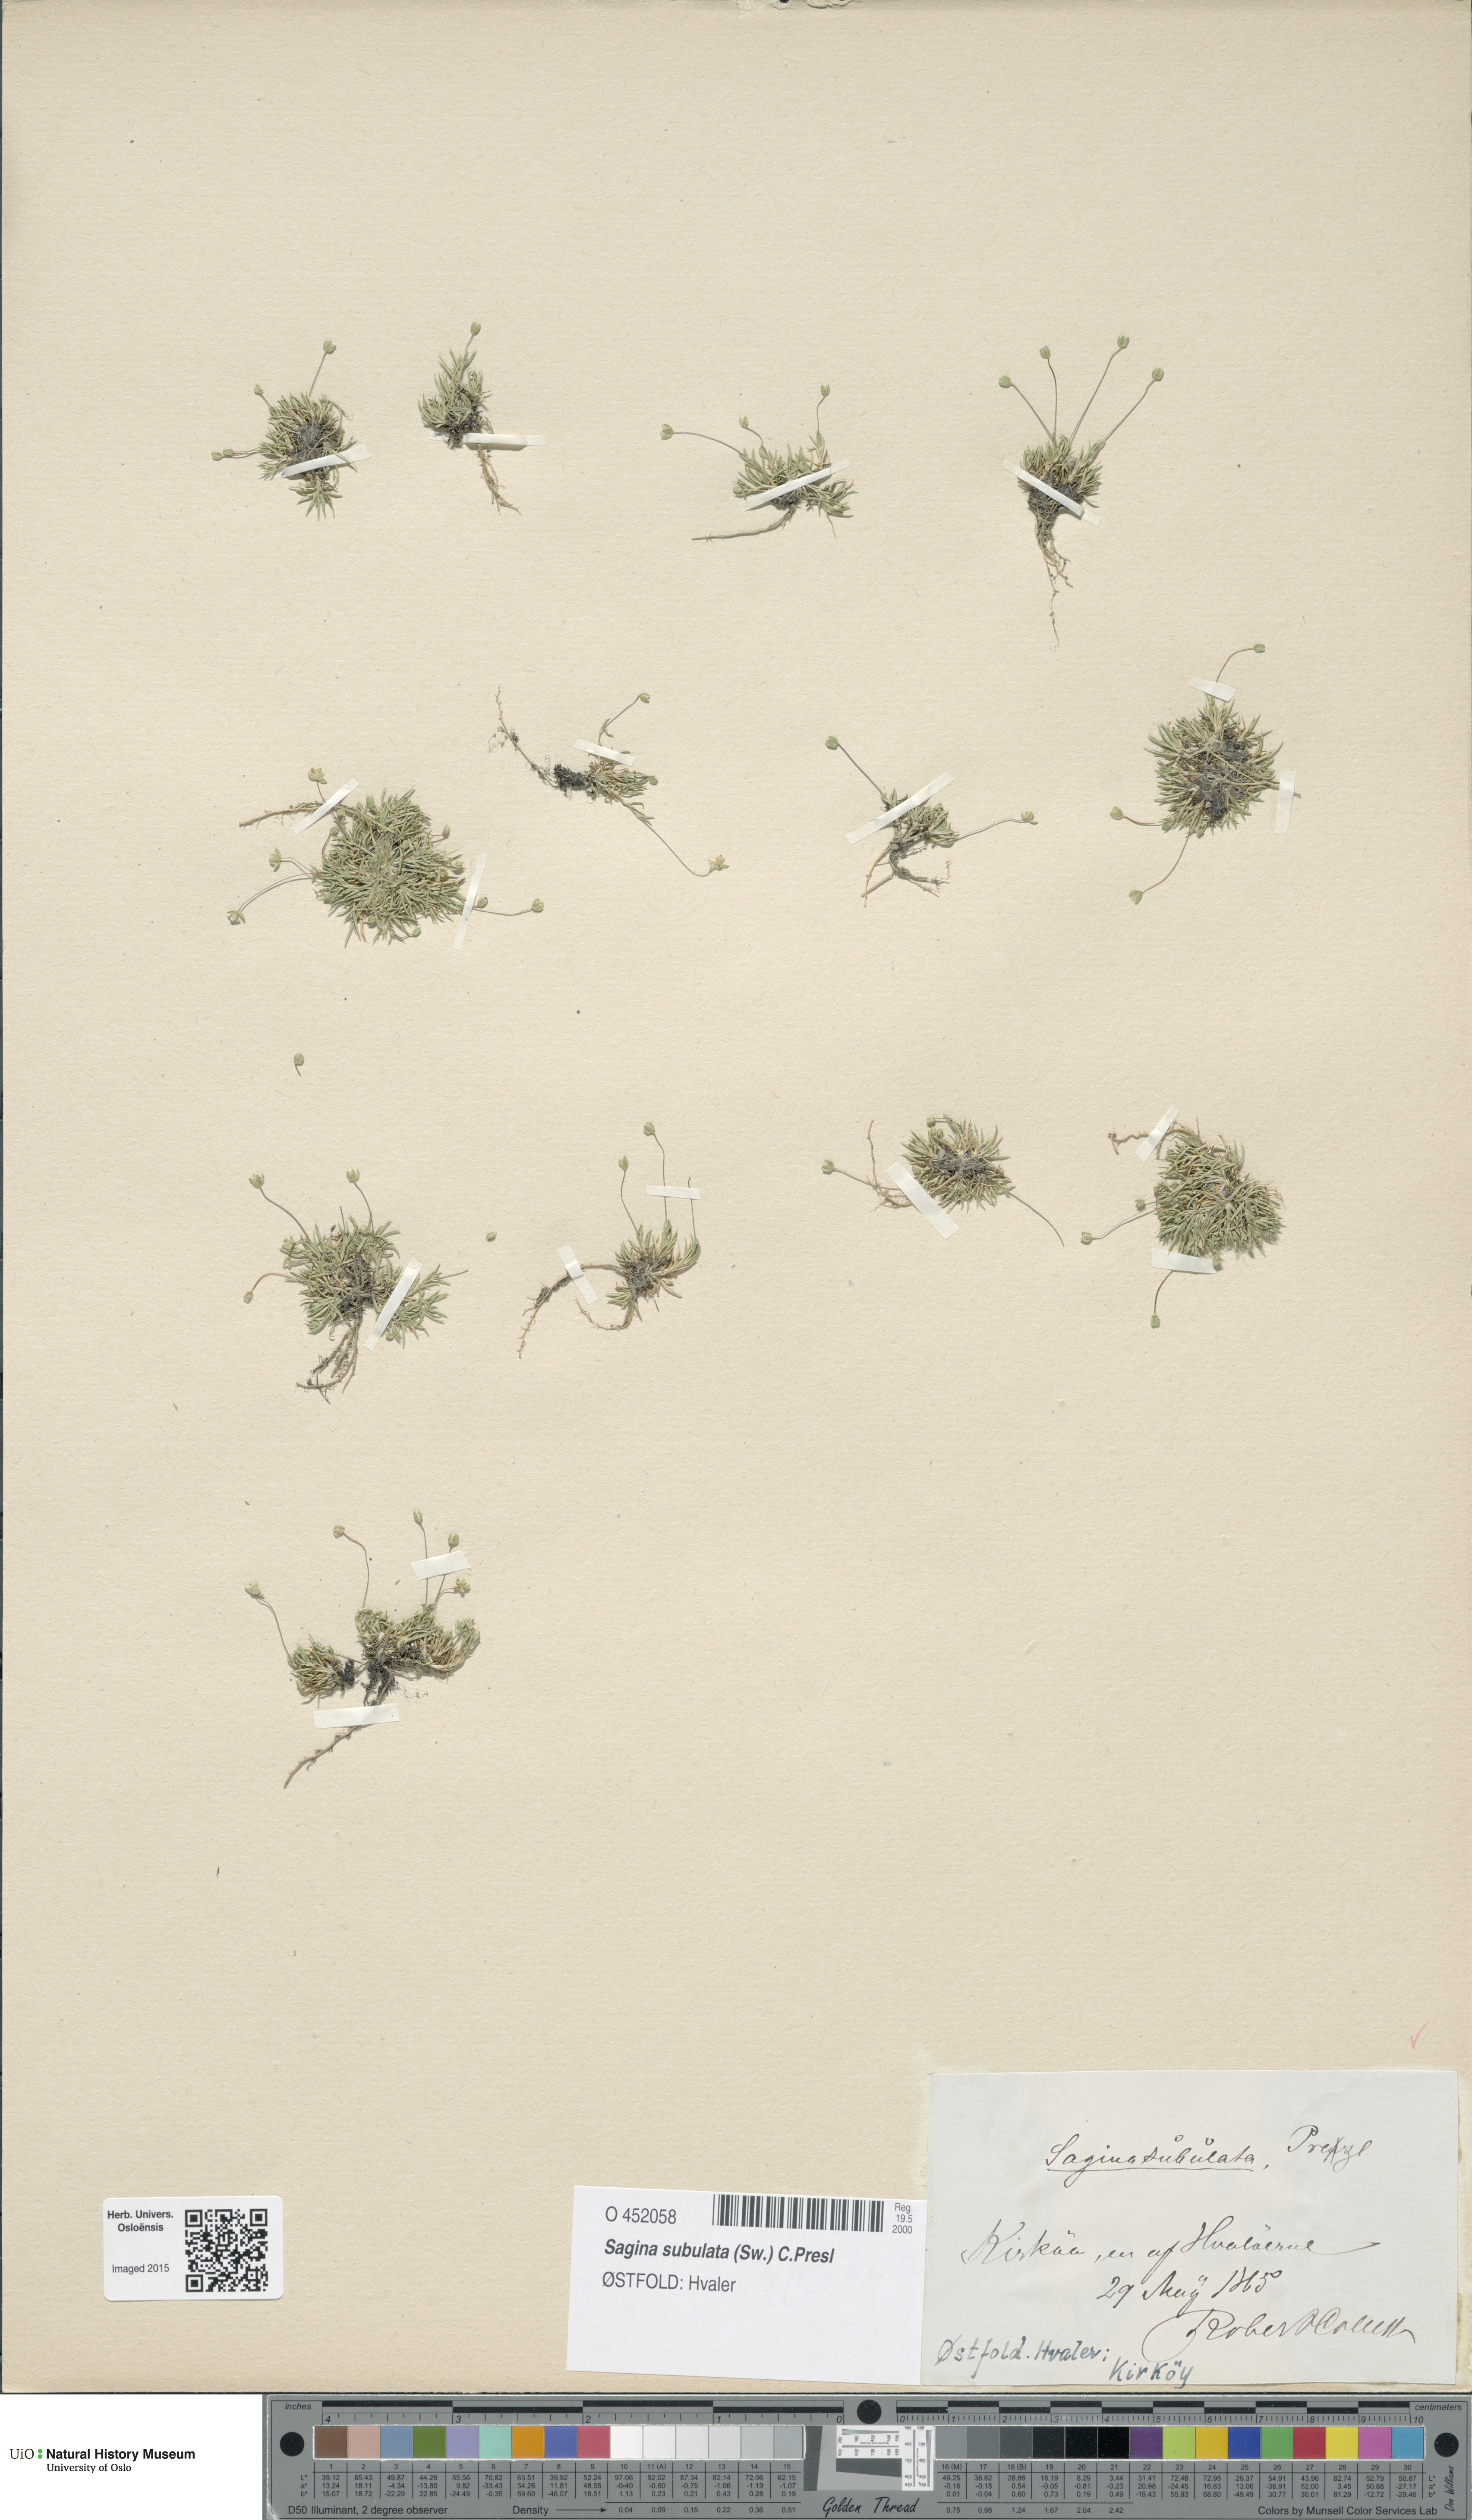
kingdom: Plantae
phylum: Tracheophyta
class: Magnoliopsida
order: Caryophyllales
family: Caryophyllaceae
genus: Sagina
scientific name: Sagina alexandrae
